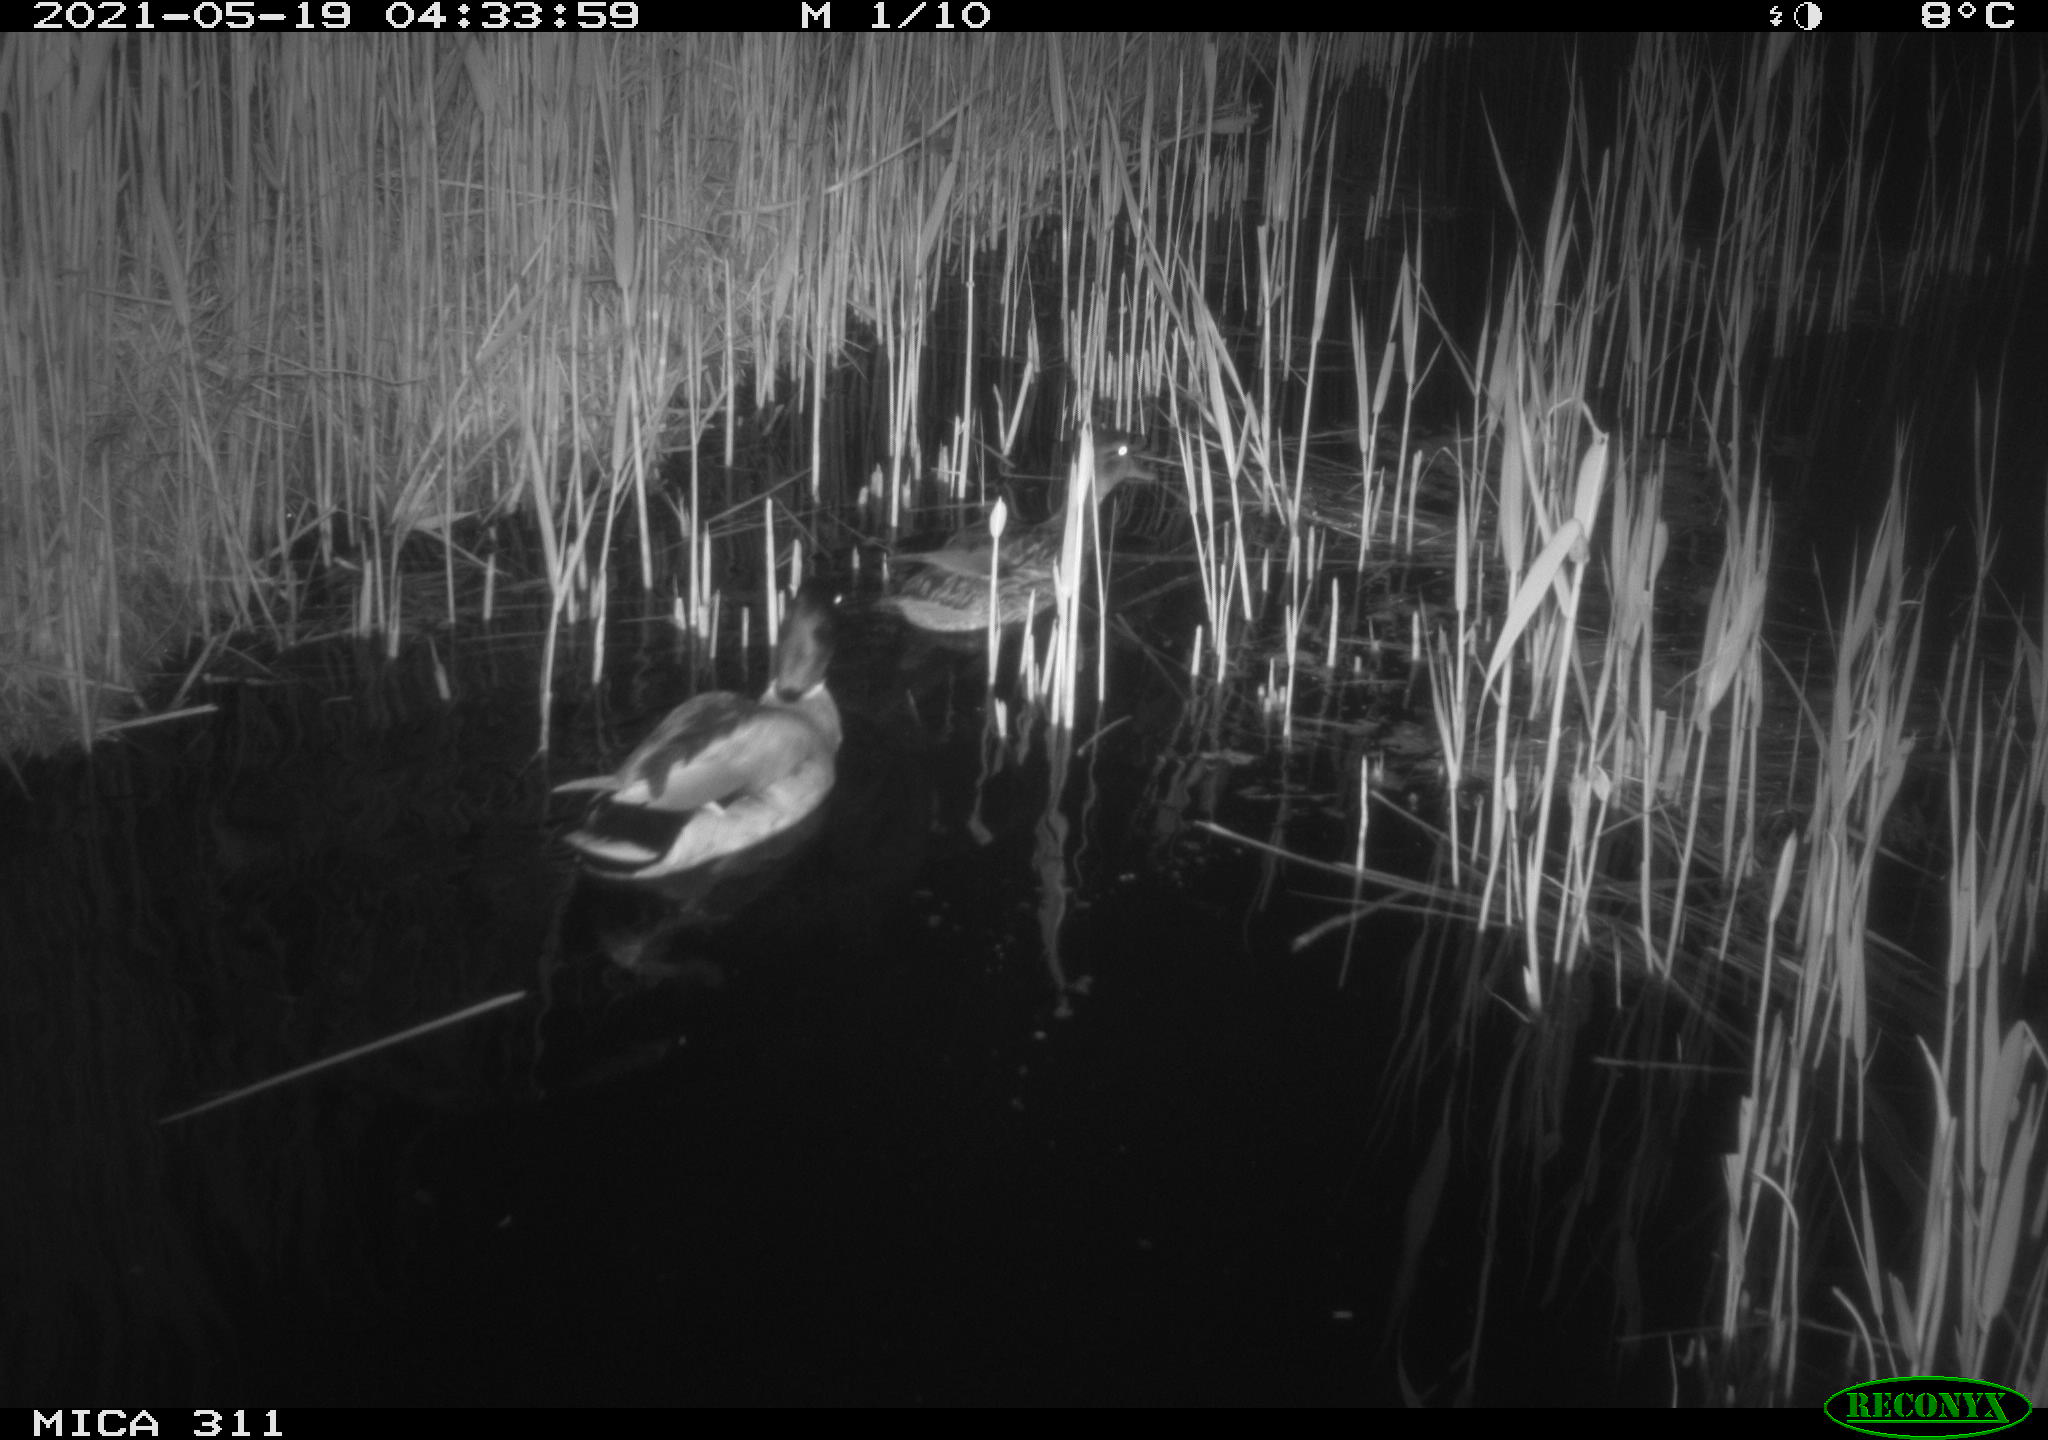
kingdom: Animalia
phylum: Chordata
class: Aves
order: Anseriformes
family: Anatidae
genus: Anas
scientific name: Anas platyrhynchos
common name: Mallard
